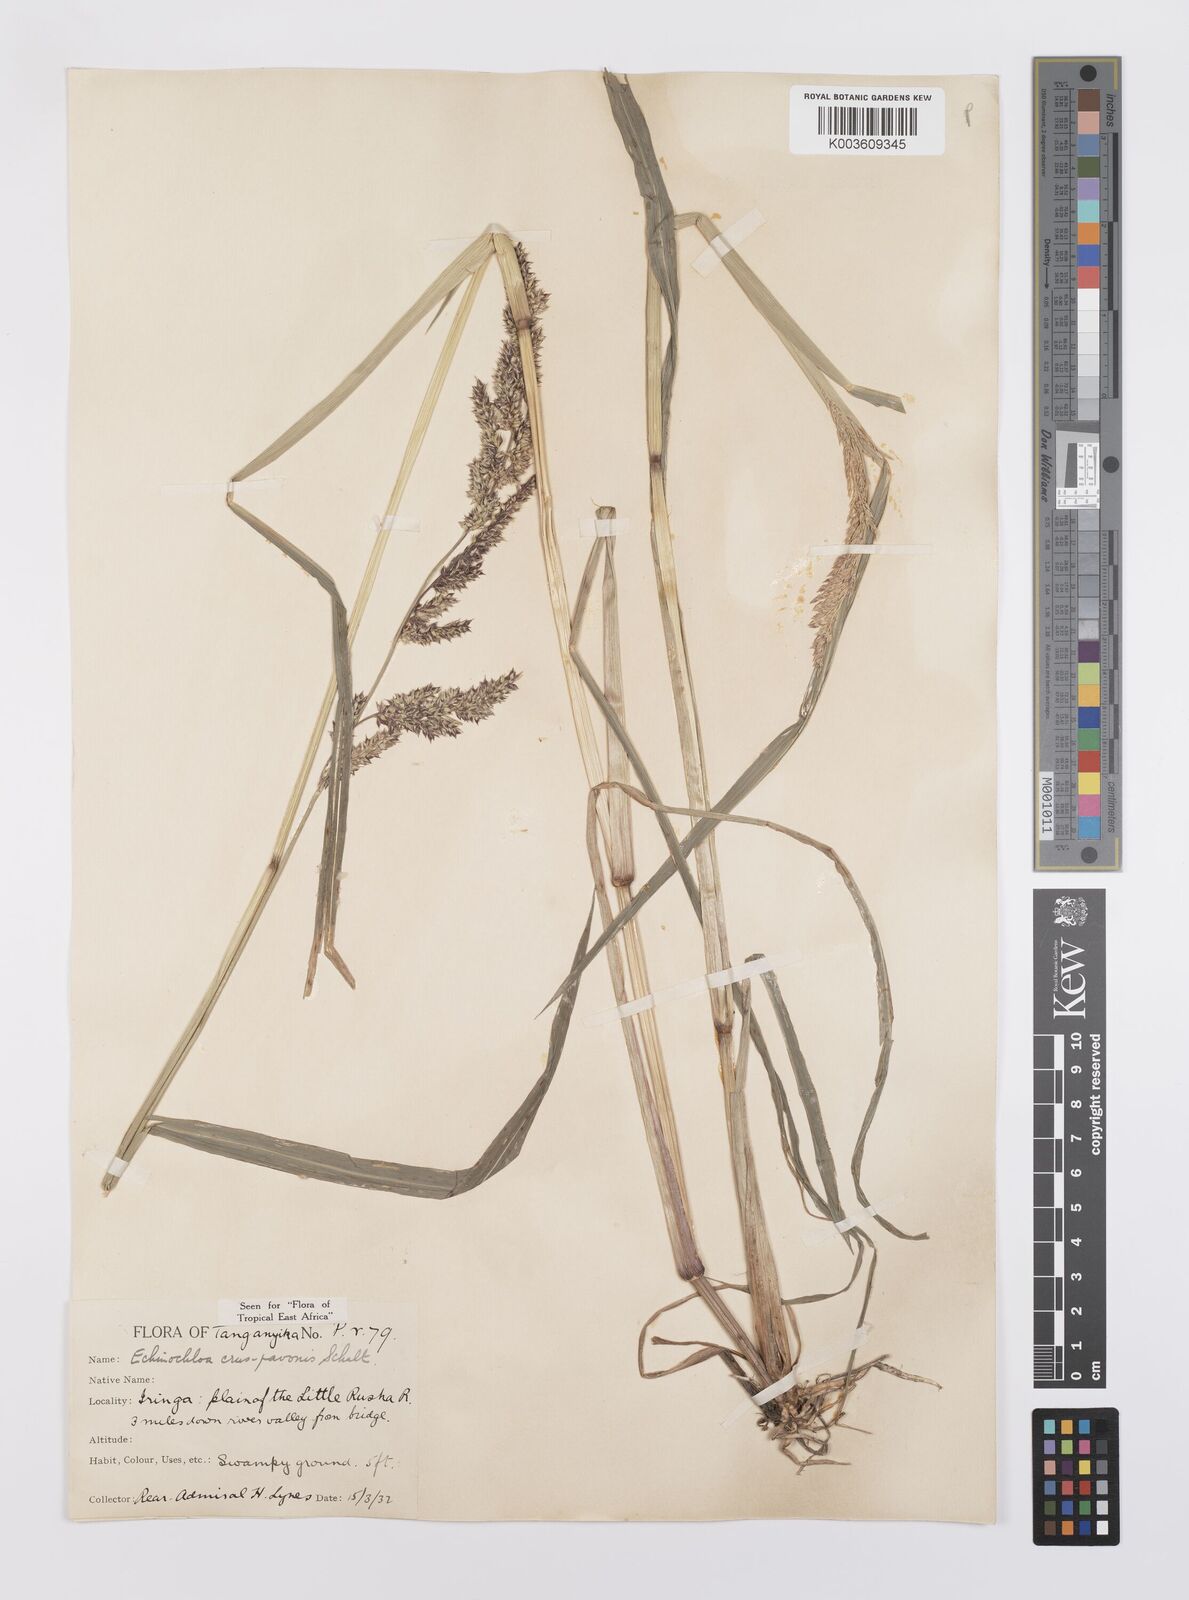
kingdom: Plantae
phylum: Tracheophyta
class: Liliopsida
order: Poales
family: Poaceae
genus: Echinochloa
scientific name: Echinochloa crus-pavonis
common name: Gulf cockspur grass
